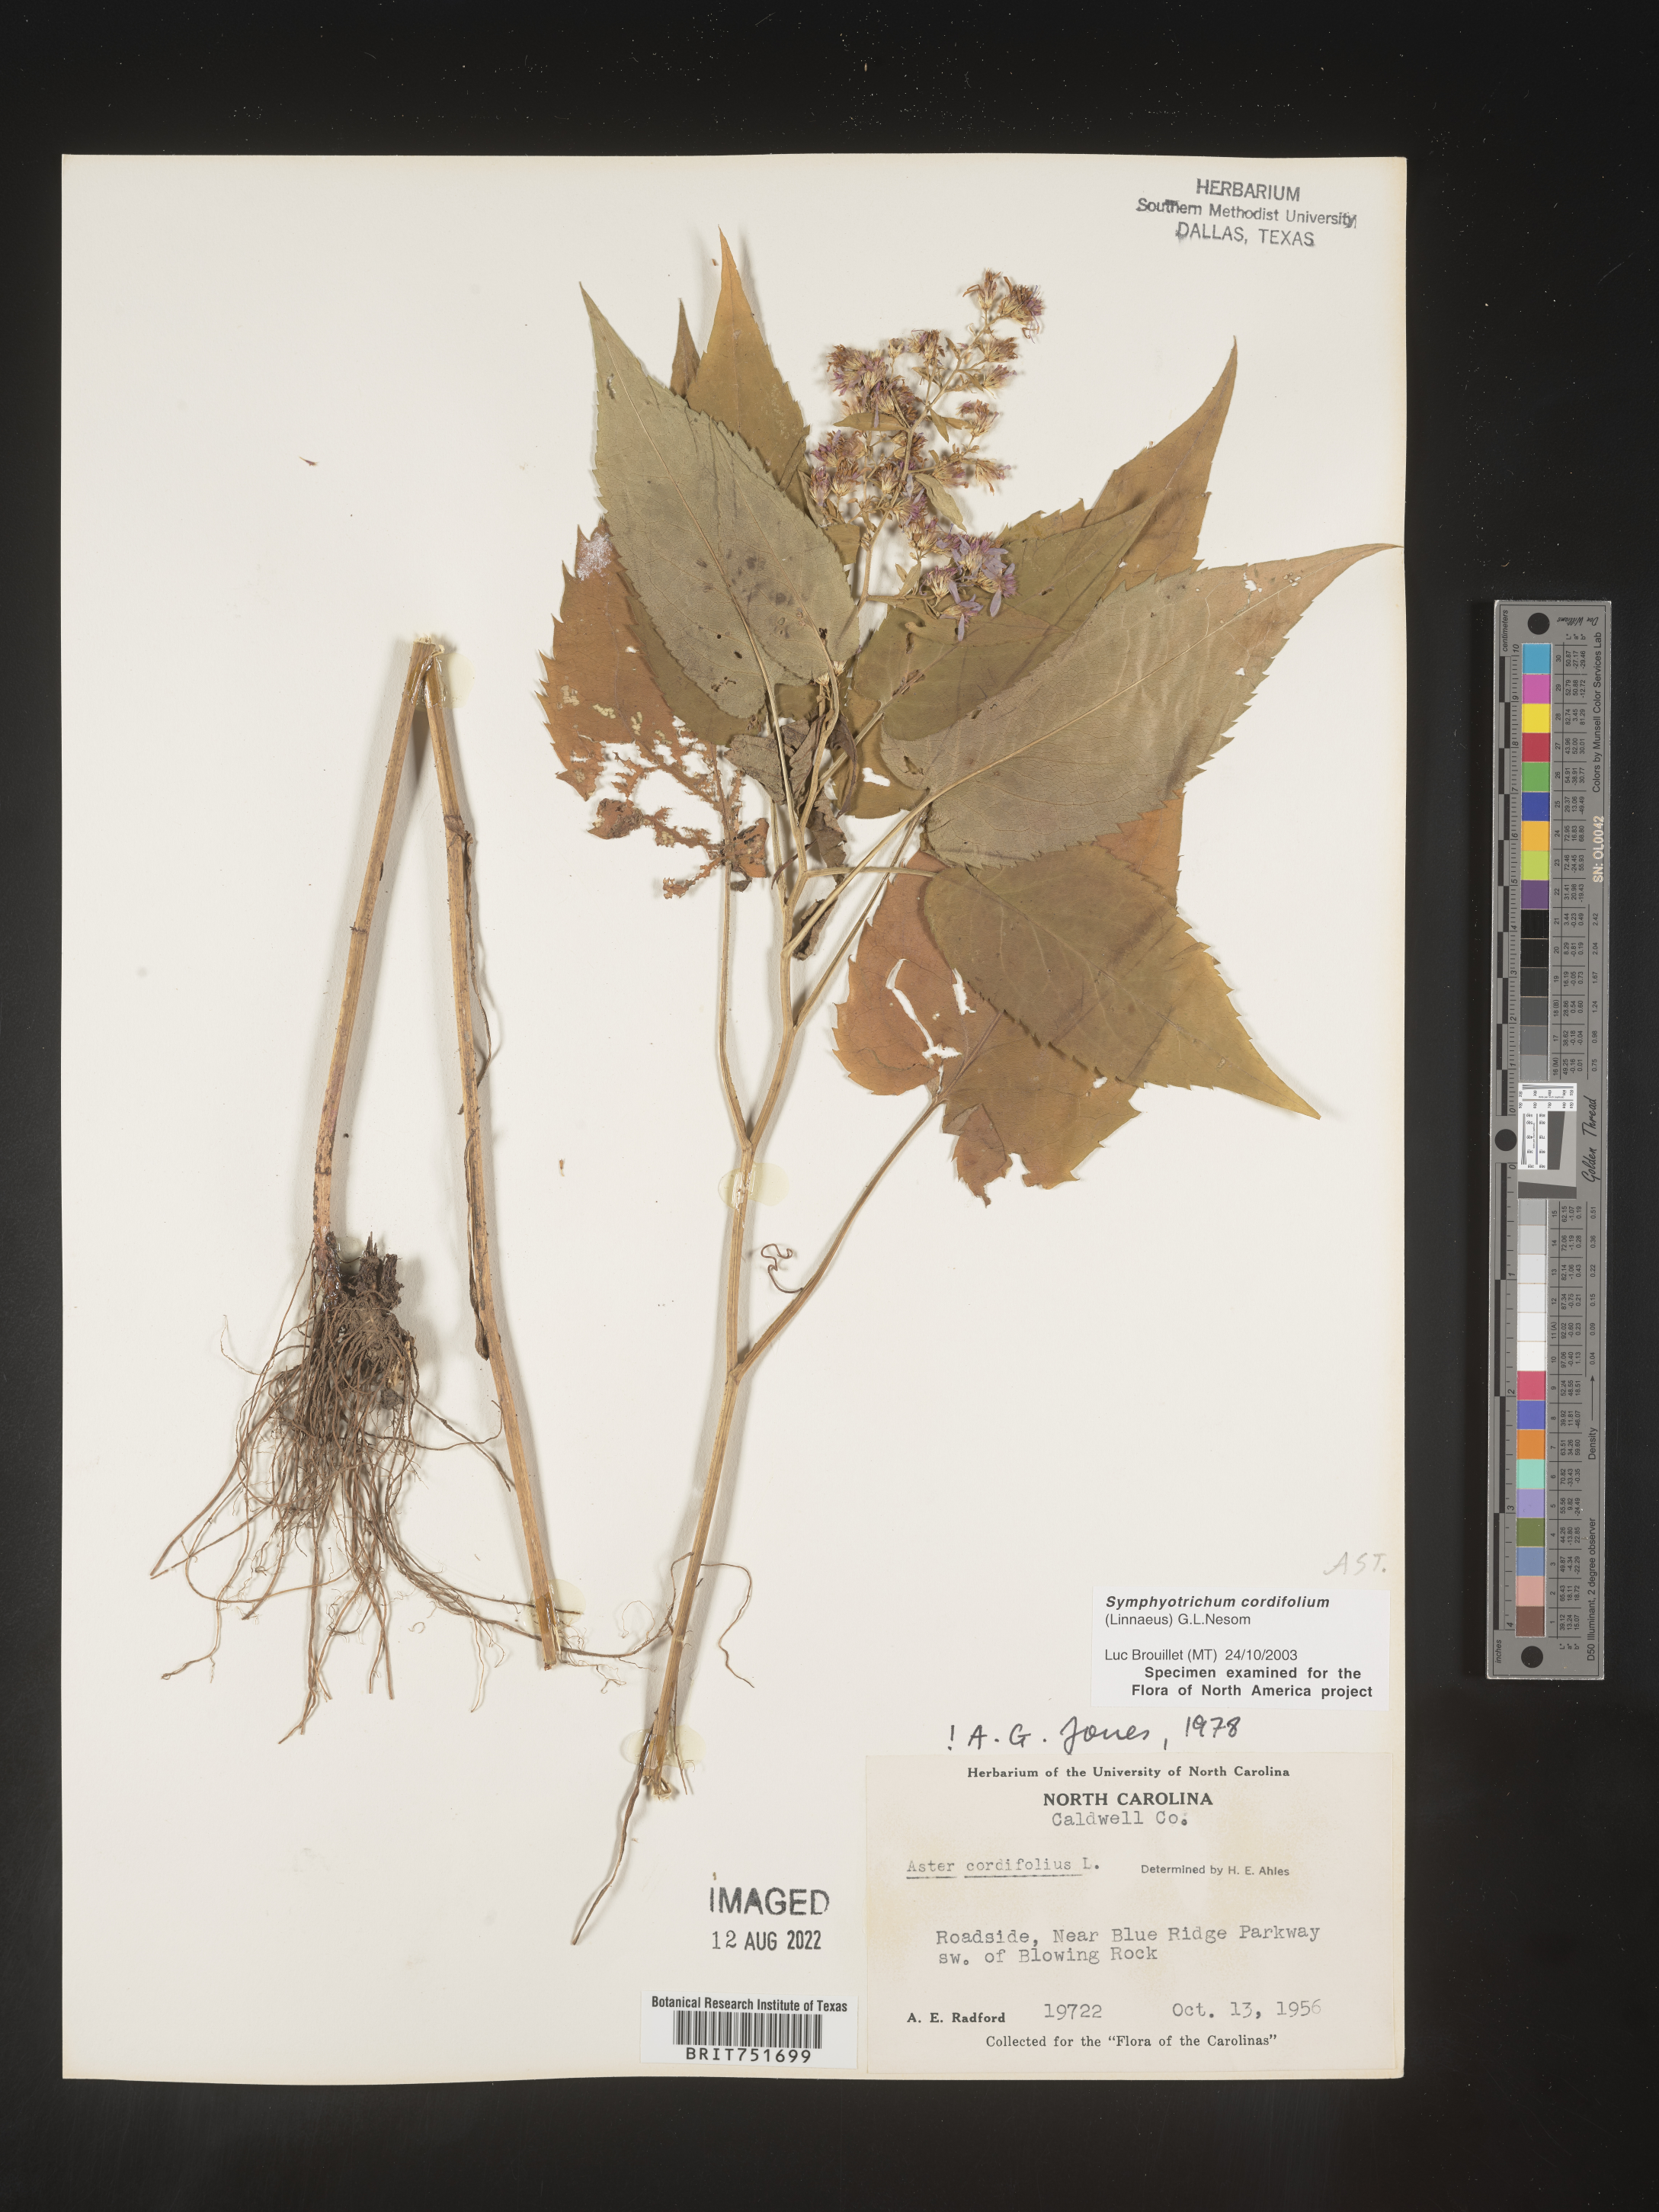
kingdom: Plantae
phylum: Tracheophyta
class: Magnoliopsida
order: Asterales
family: Asteraceae
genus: Symphyotrichum
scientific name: Symphyotrichum cordifolium
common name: Beeweed
